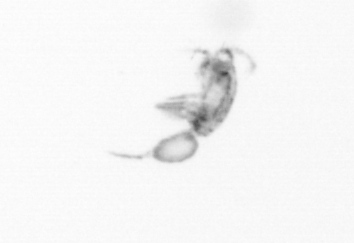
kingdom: Animalia
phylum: Arthropoda
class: Copepoda
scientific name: Copepoda
